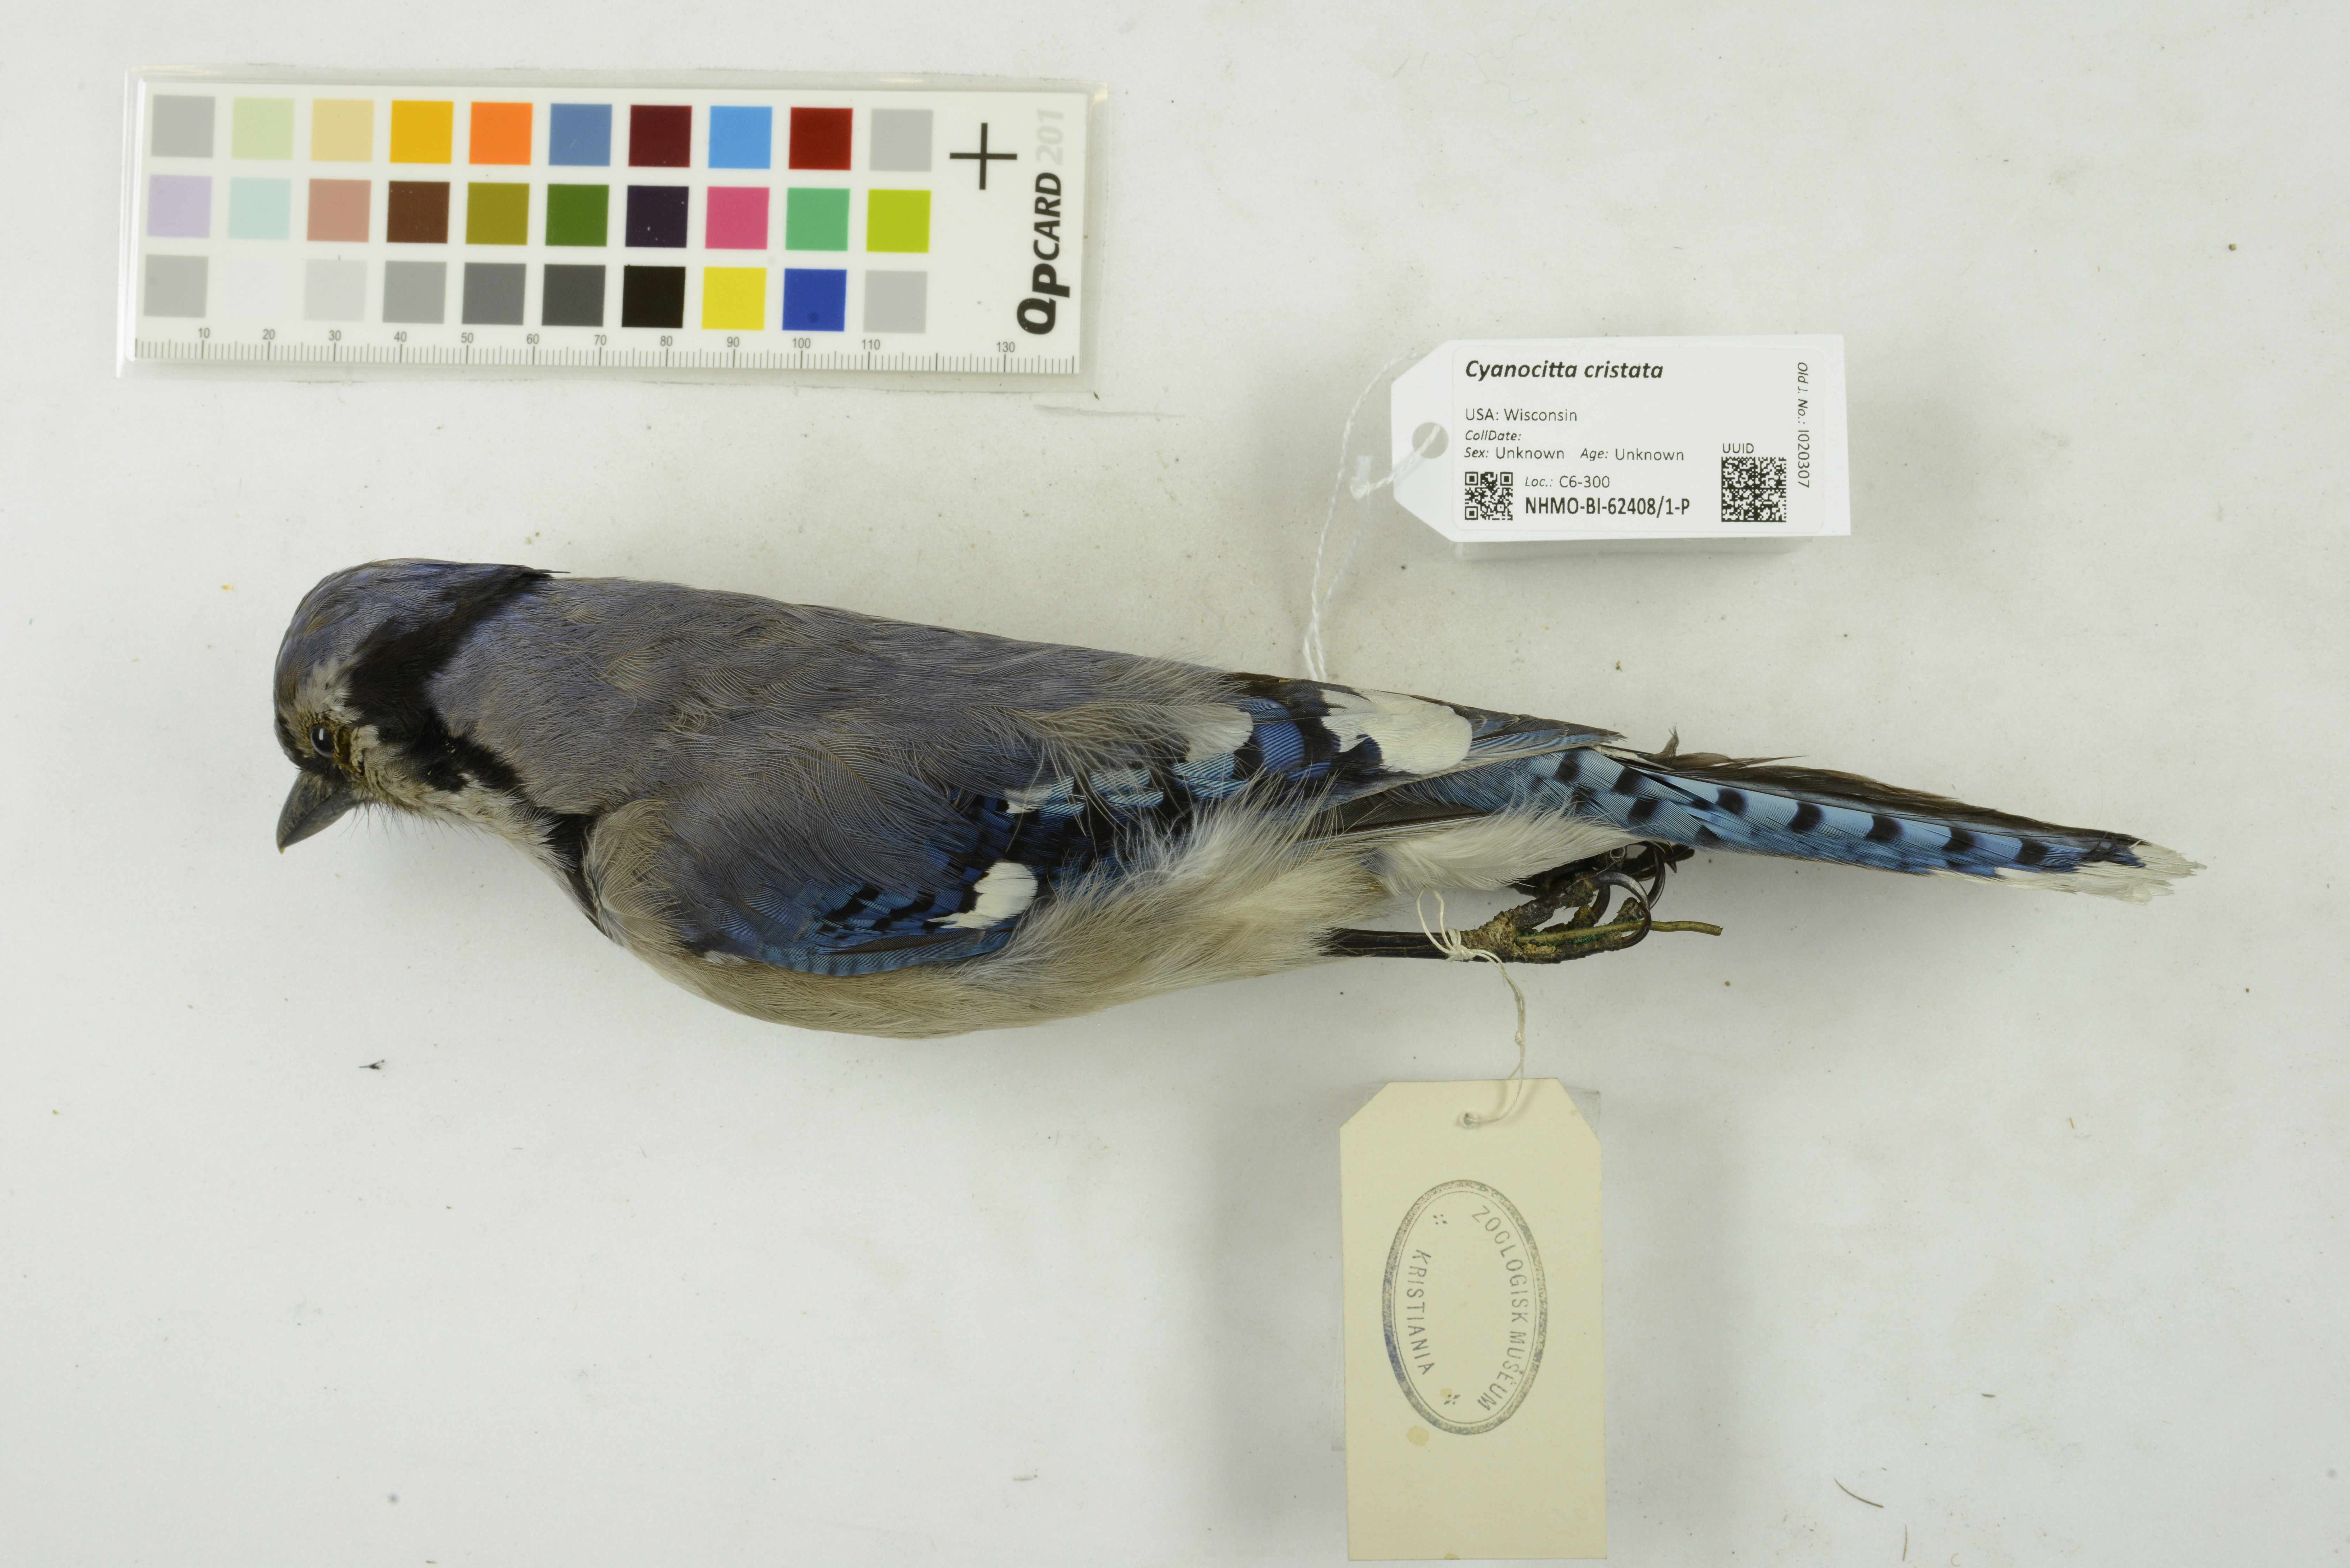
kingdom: Animalia
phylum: Chordata
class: Aves
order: Passeriformes
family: Corvidae
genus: Cyanocitta
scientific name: Cyanocitta cristata
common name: Blue jay
